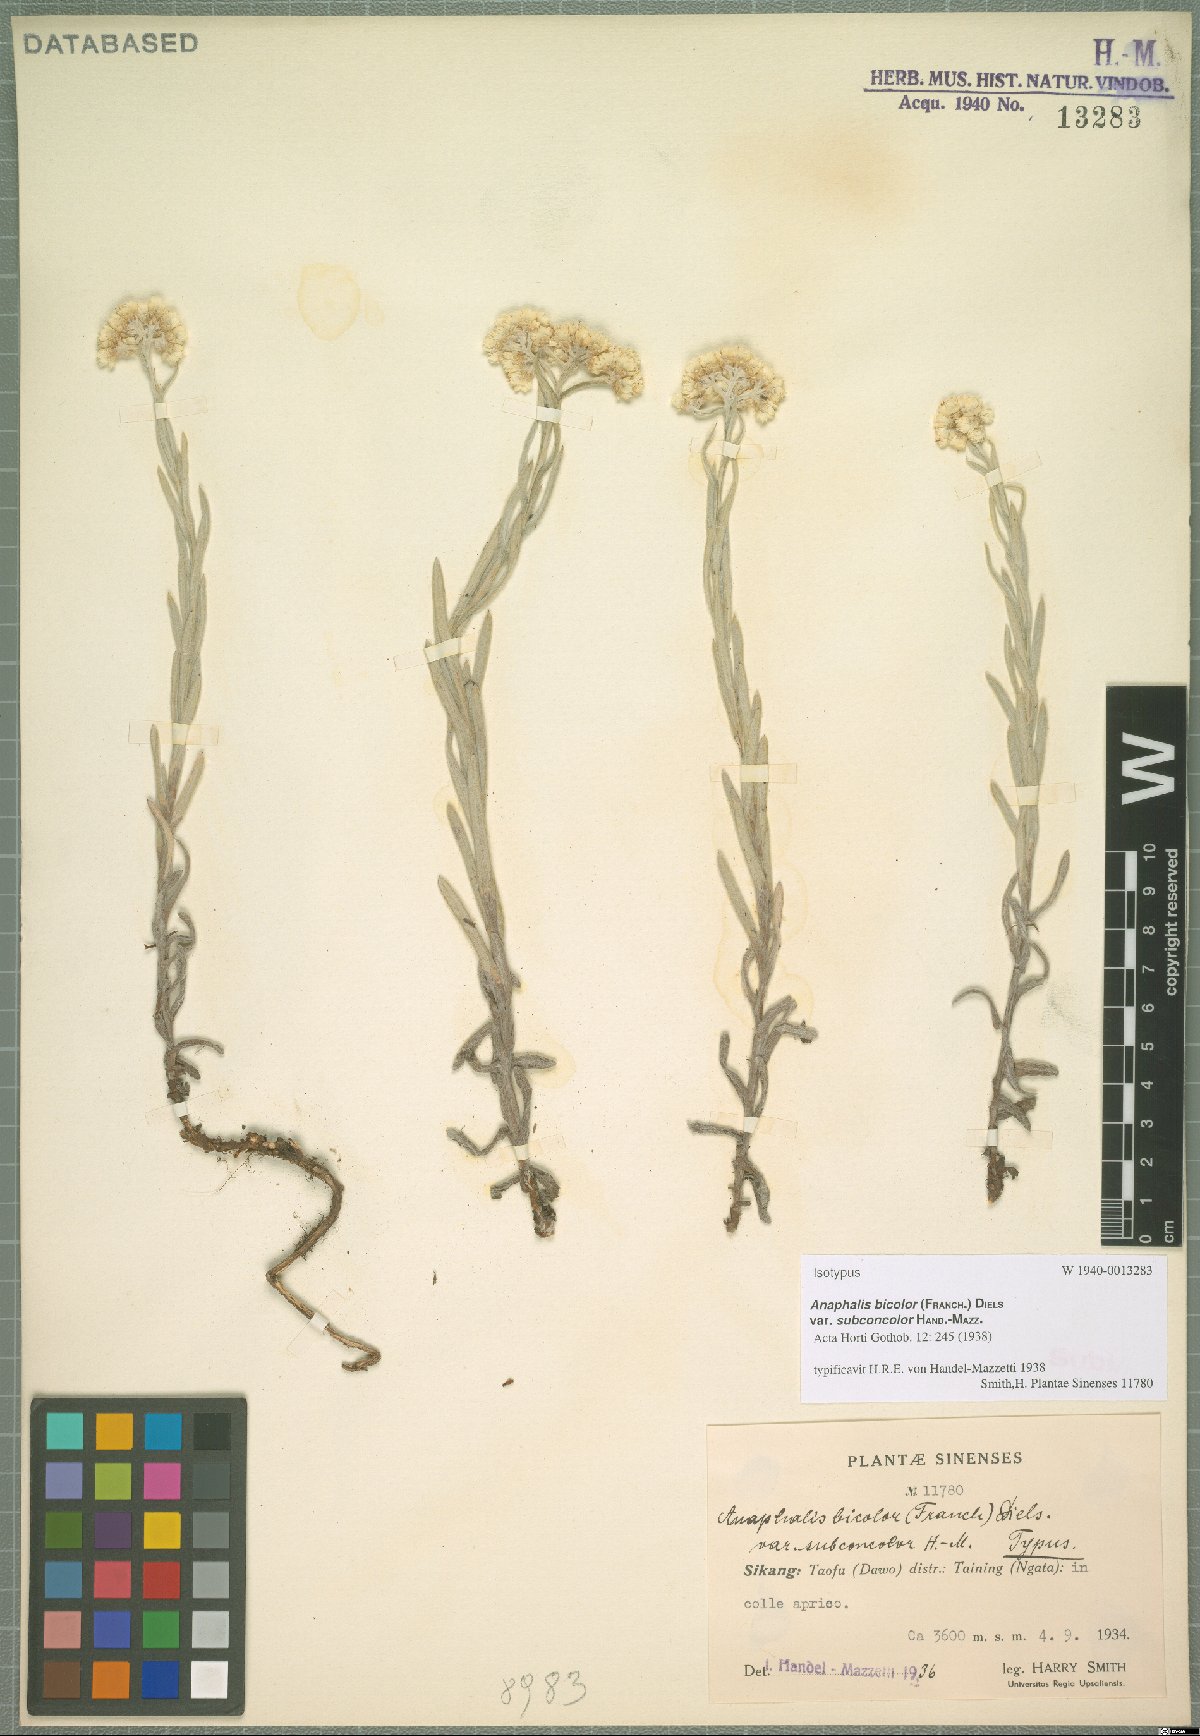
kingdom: Plantae
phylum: Tracheophyta
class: Magnoliopsida
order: Asterales
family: Asteraceae
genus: Anaphalis
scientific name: Anaphalis bicolor
